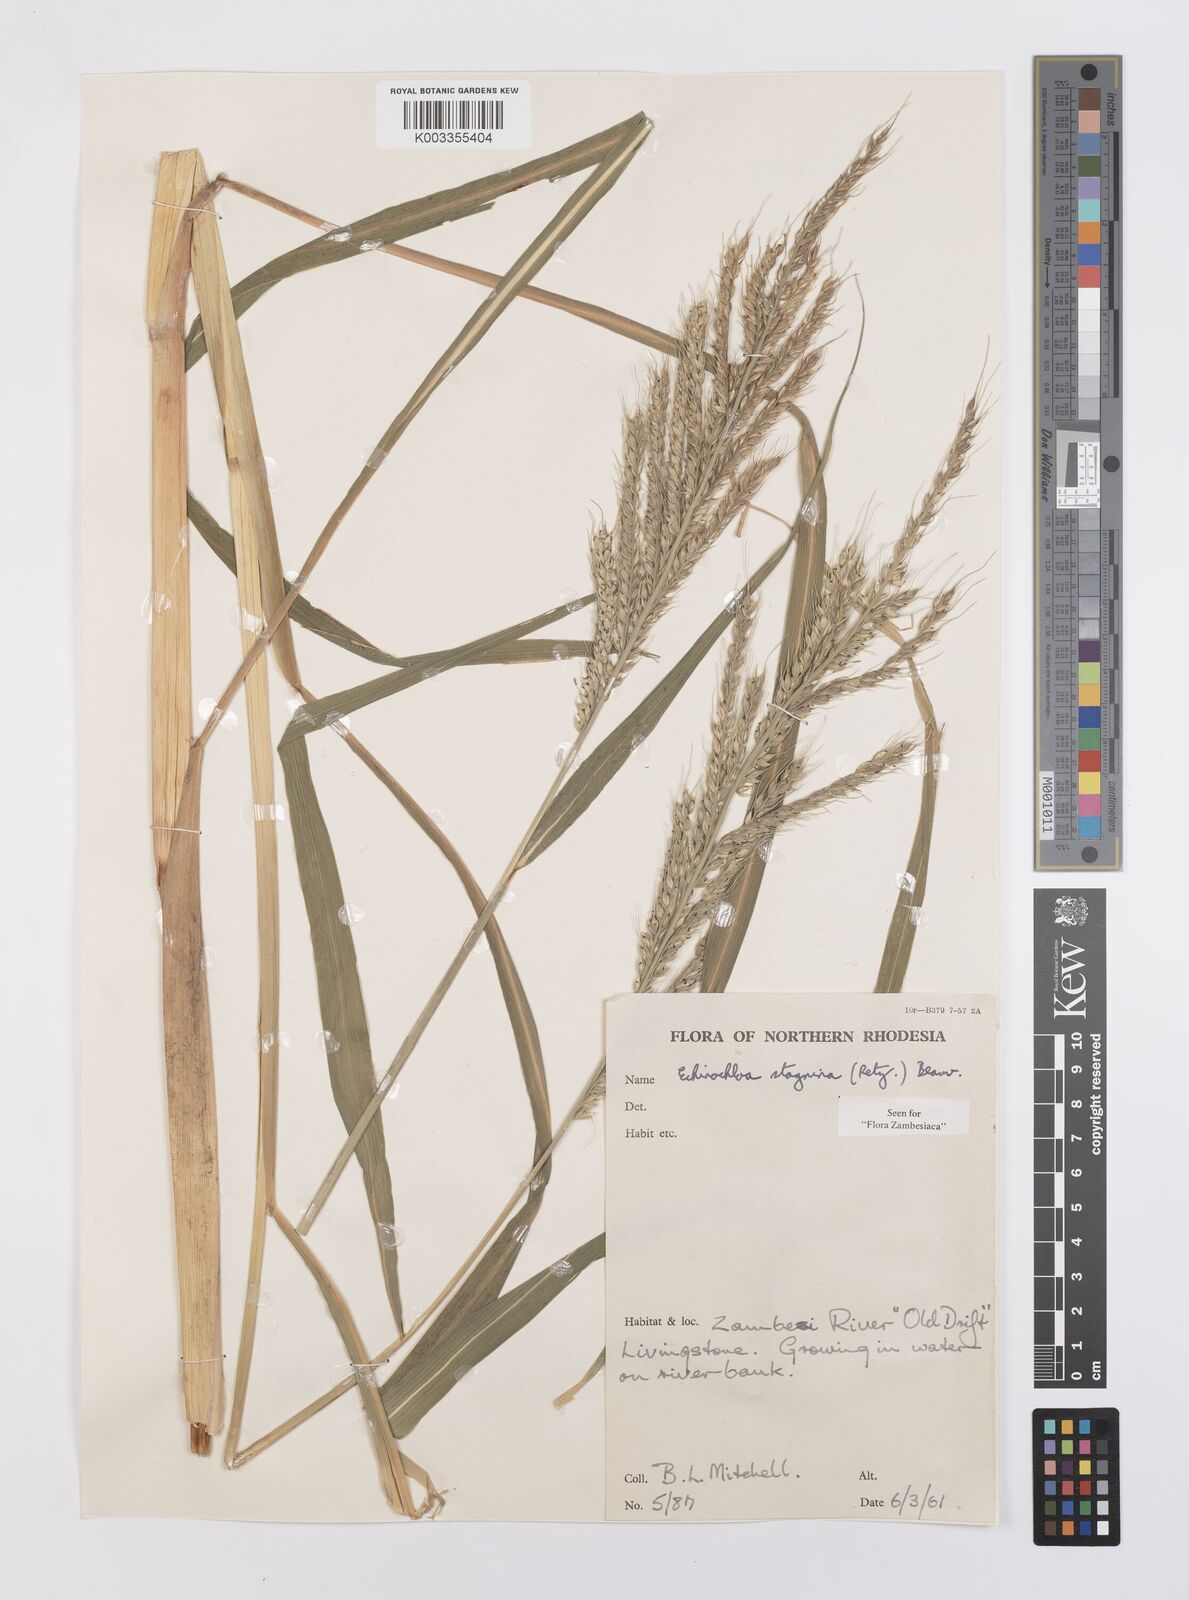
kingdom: Plantae
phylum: Tracheophyta
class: Liliopsida
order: Poales
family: Poaceae
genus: Echinochloa
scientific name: Echinochloa stagnina
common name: Burgu grass
